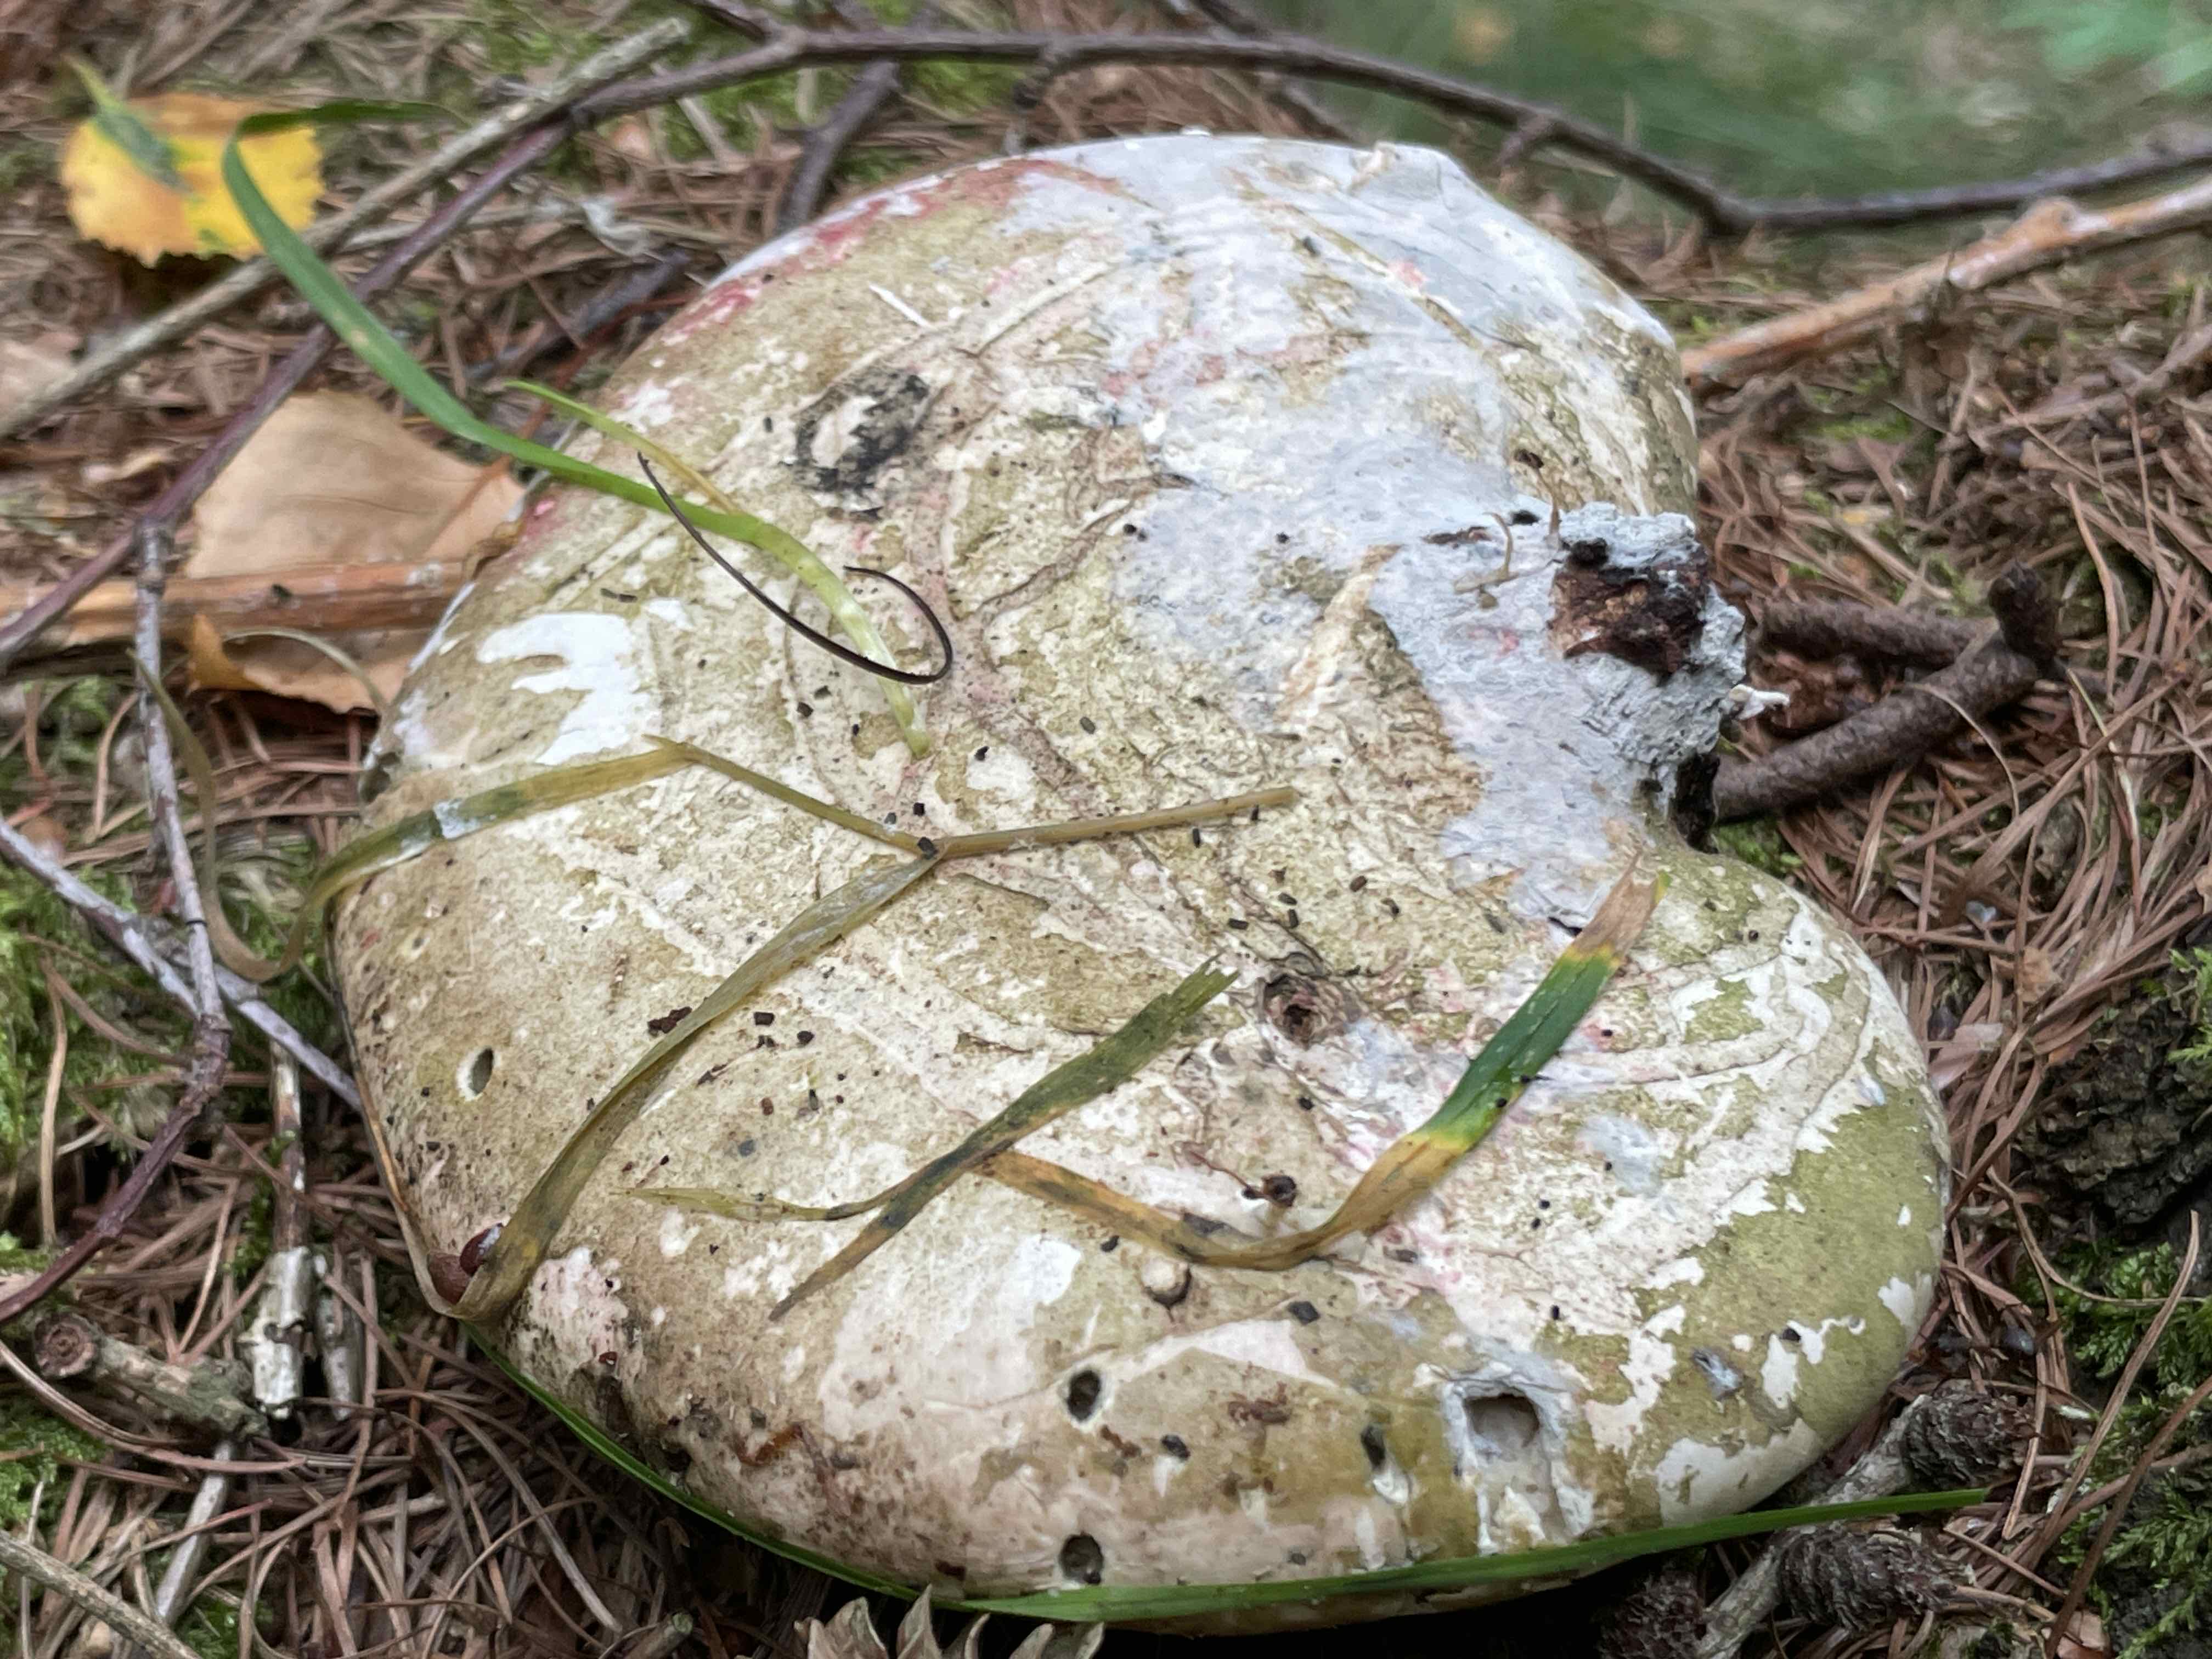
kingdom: Fungi
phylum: Basidiomycota
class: Agaricomycetes
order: Polyporales
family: Fomitopsidaceae
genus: Fomitopsis
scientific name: Fomitopsis betulina
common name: birkeporesvamp
